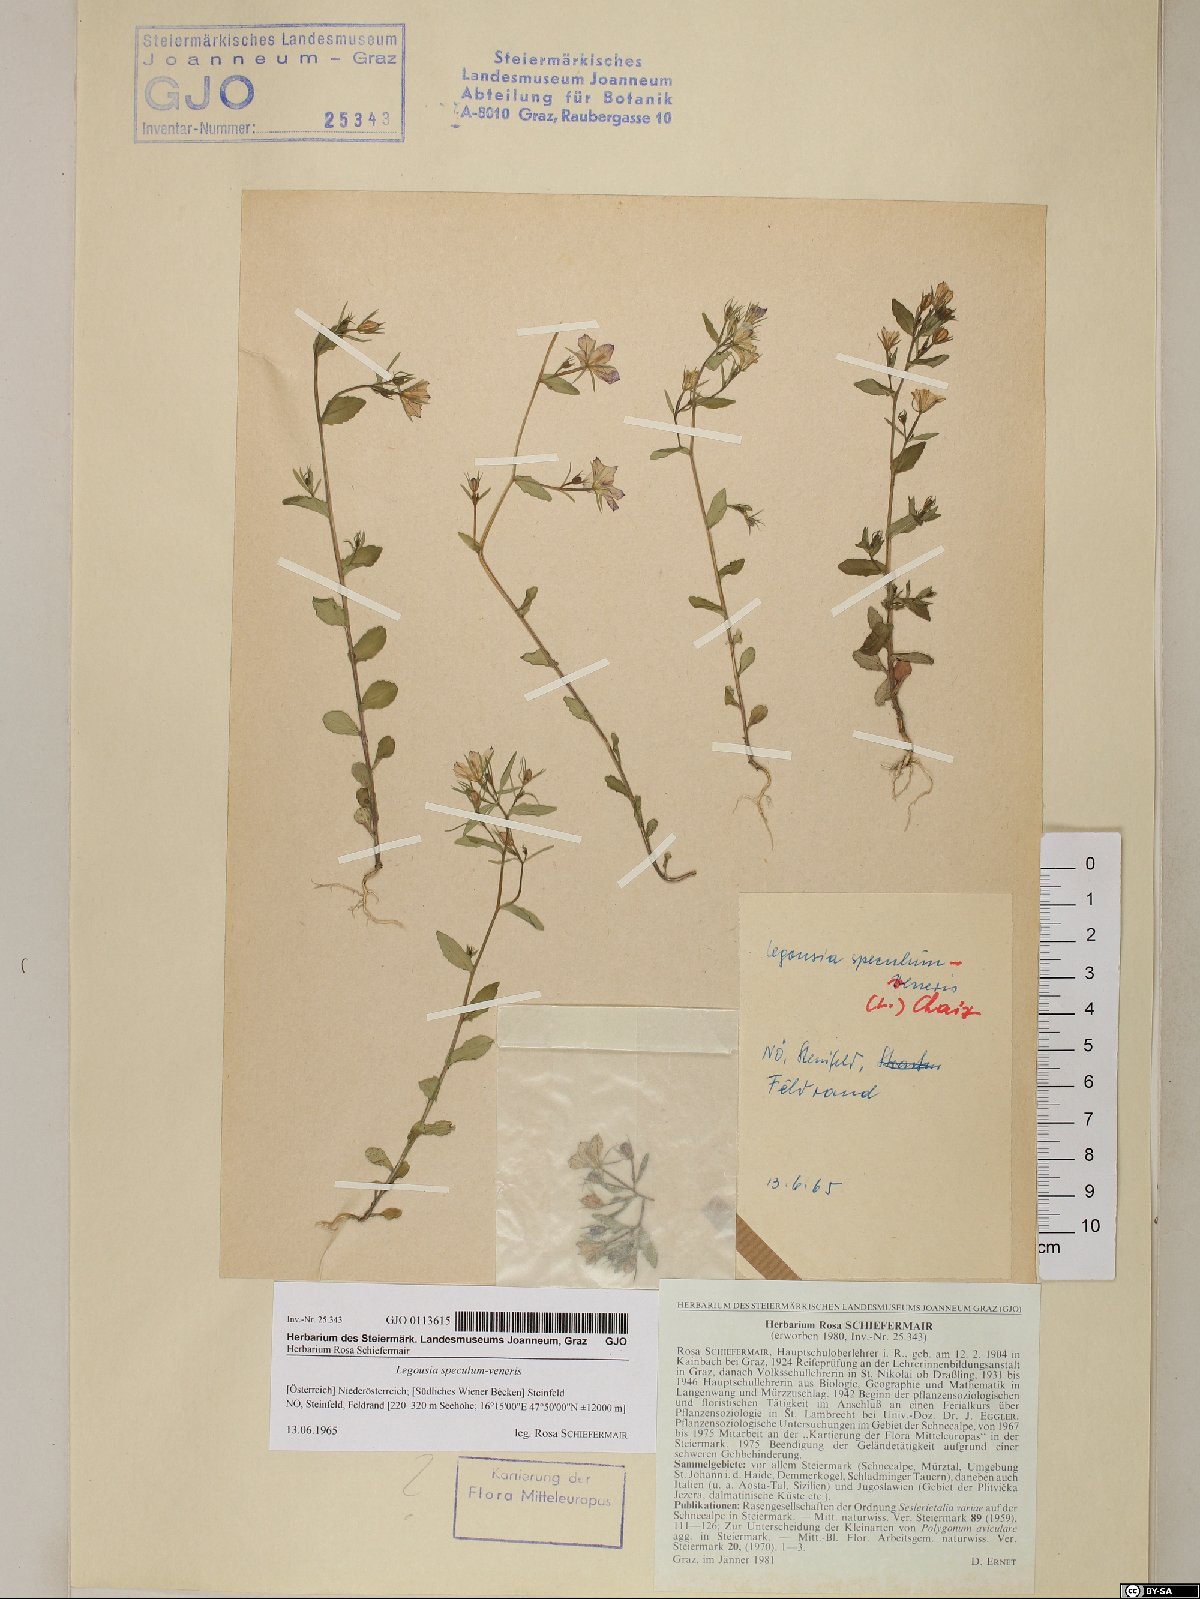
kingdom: Plantae
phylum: Tracheophyta
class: Magnoliopsida
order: Asterales
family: Campanulaceae
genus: Legousia
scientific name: Legousia speculum-veneris
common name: Large venus's-looking-glass
